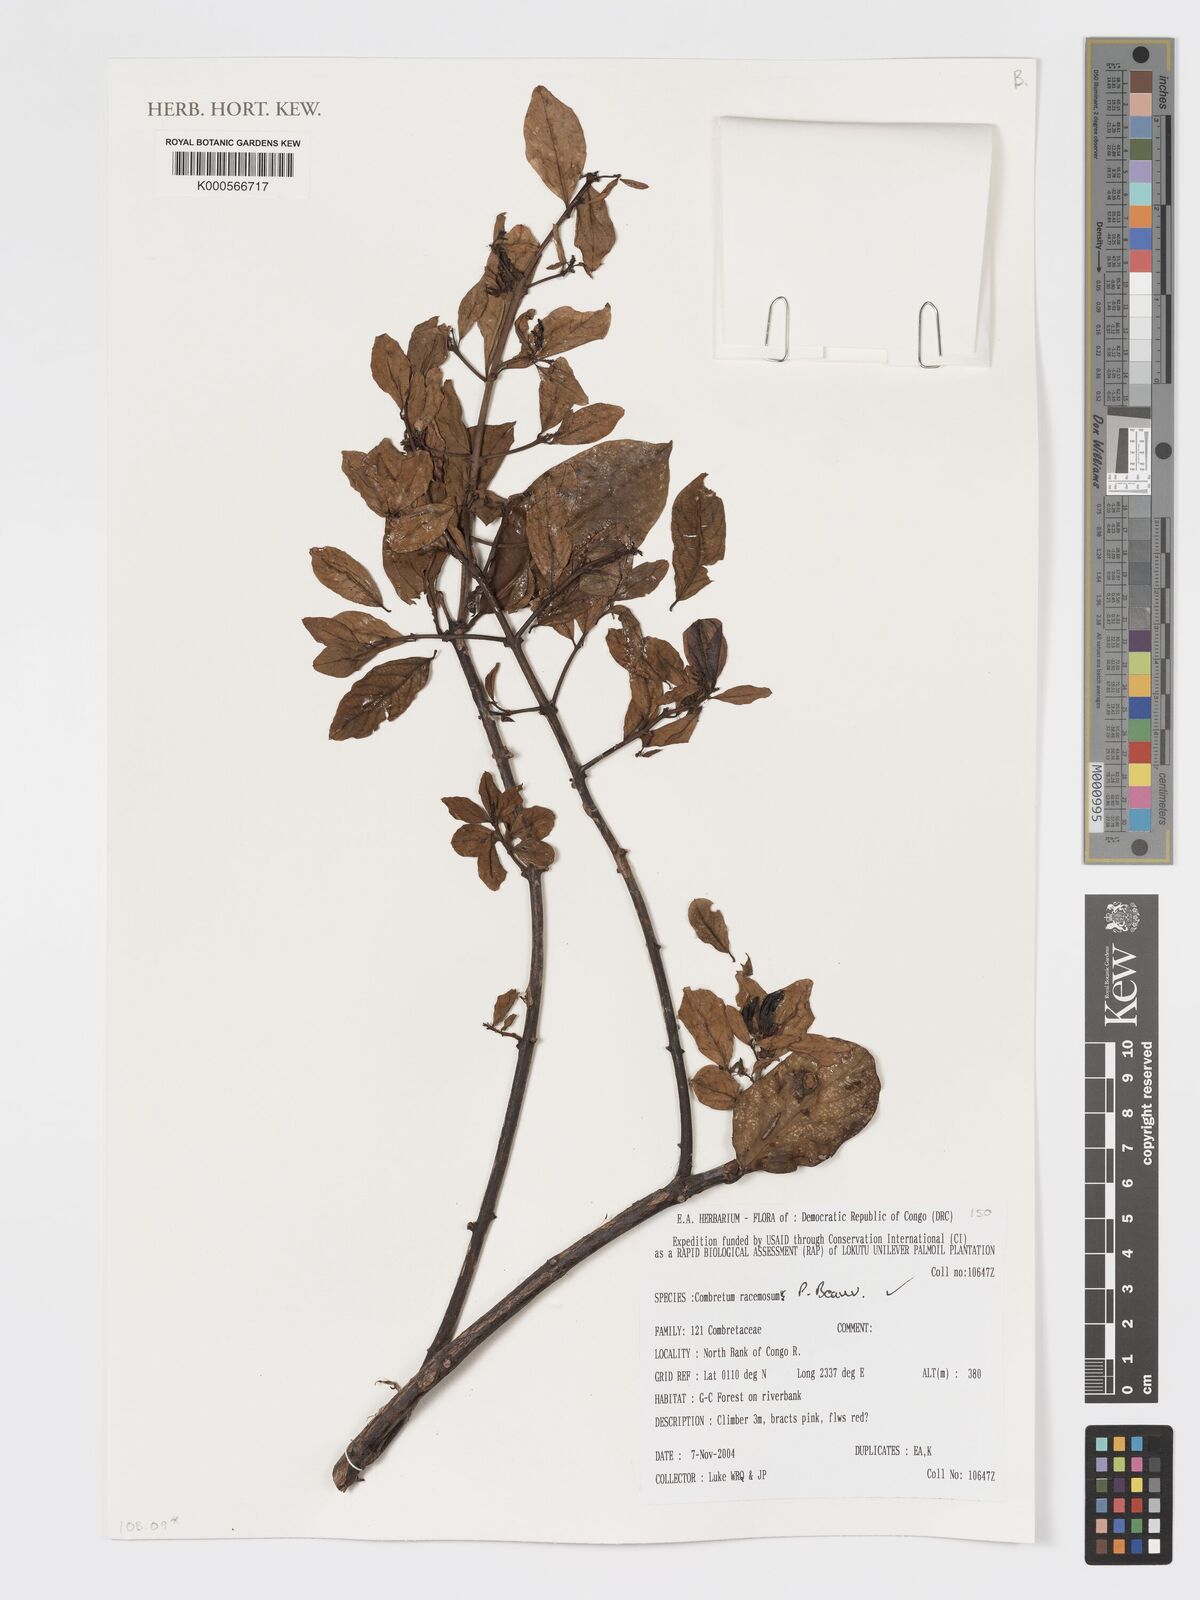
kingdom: Plantae
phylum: Tracheophyta
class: Magnoliopsida
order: Myrtales
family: Combretaceae
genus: Combretum
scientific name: Combretum racemosum
